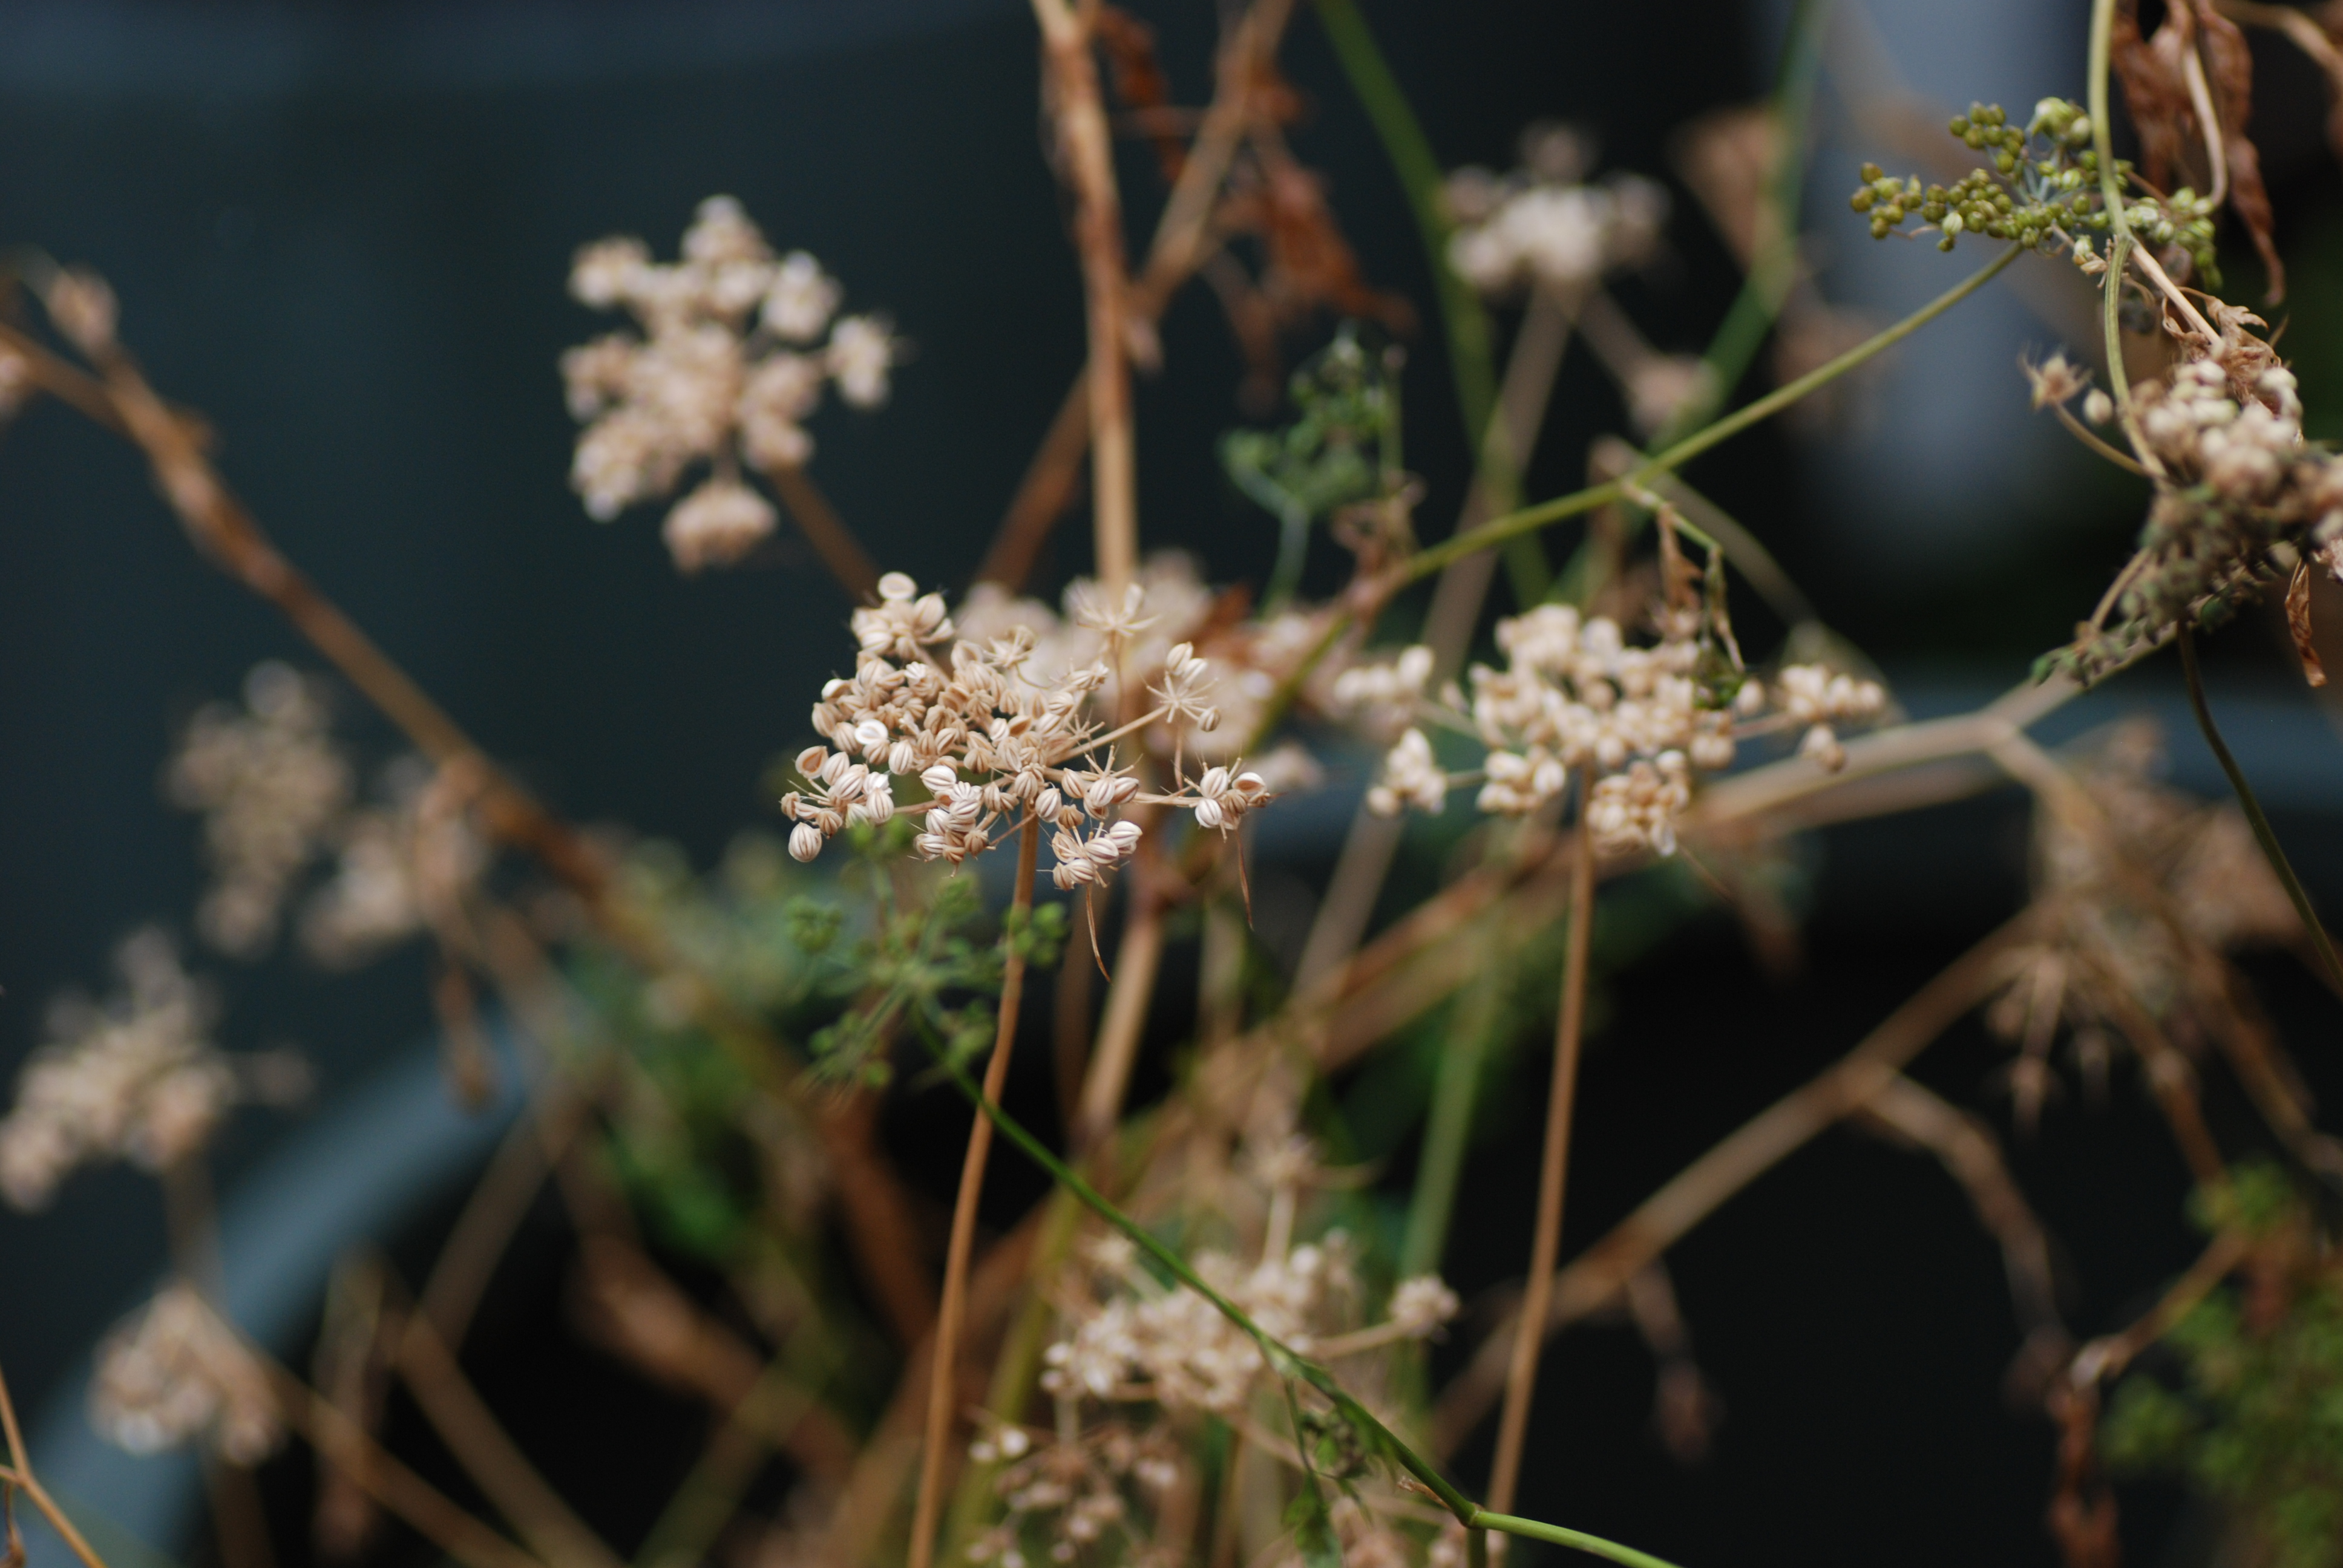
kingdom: Plantae
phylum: Tracheophyta
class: Magnoliopsida
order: Apiales
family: Apiaceae
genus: Aethusa
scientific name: Aethusa cynapium
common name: Fool's parsley
